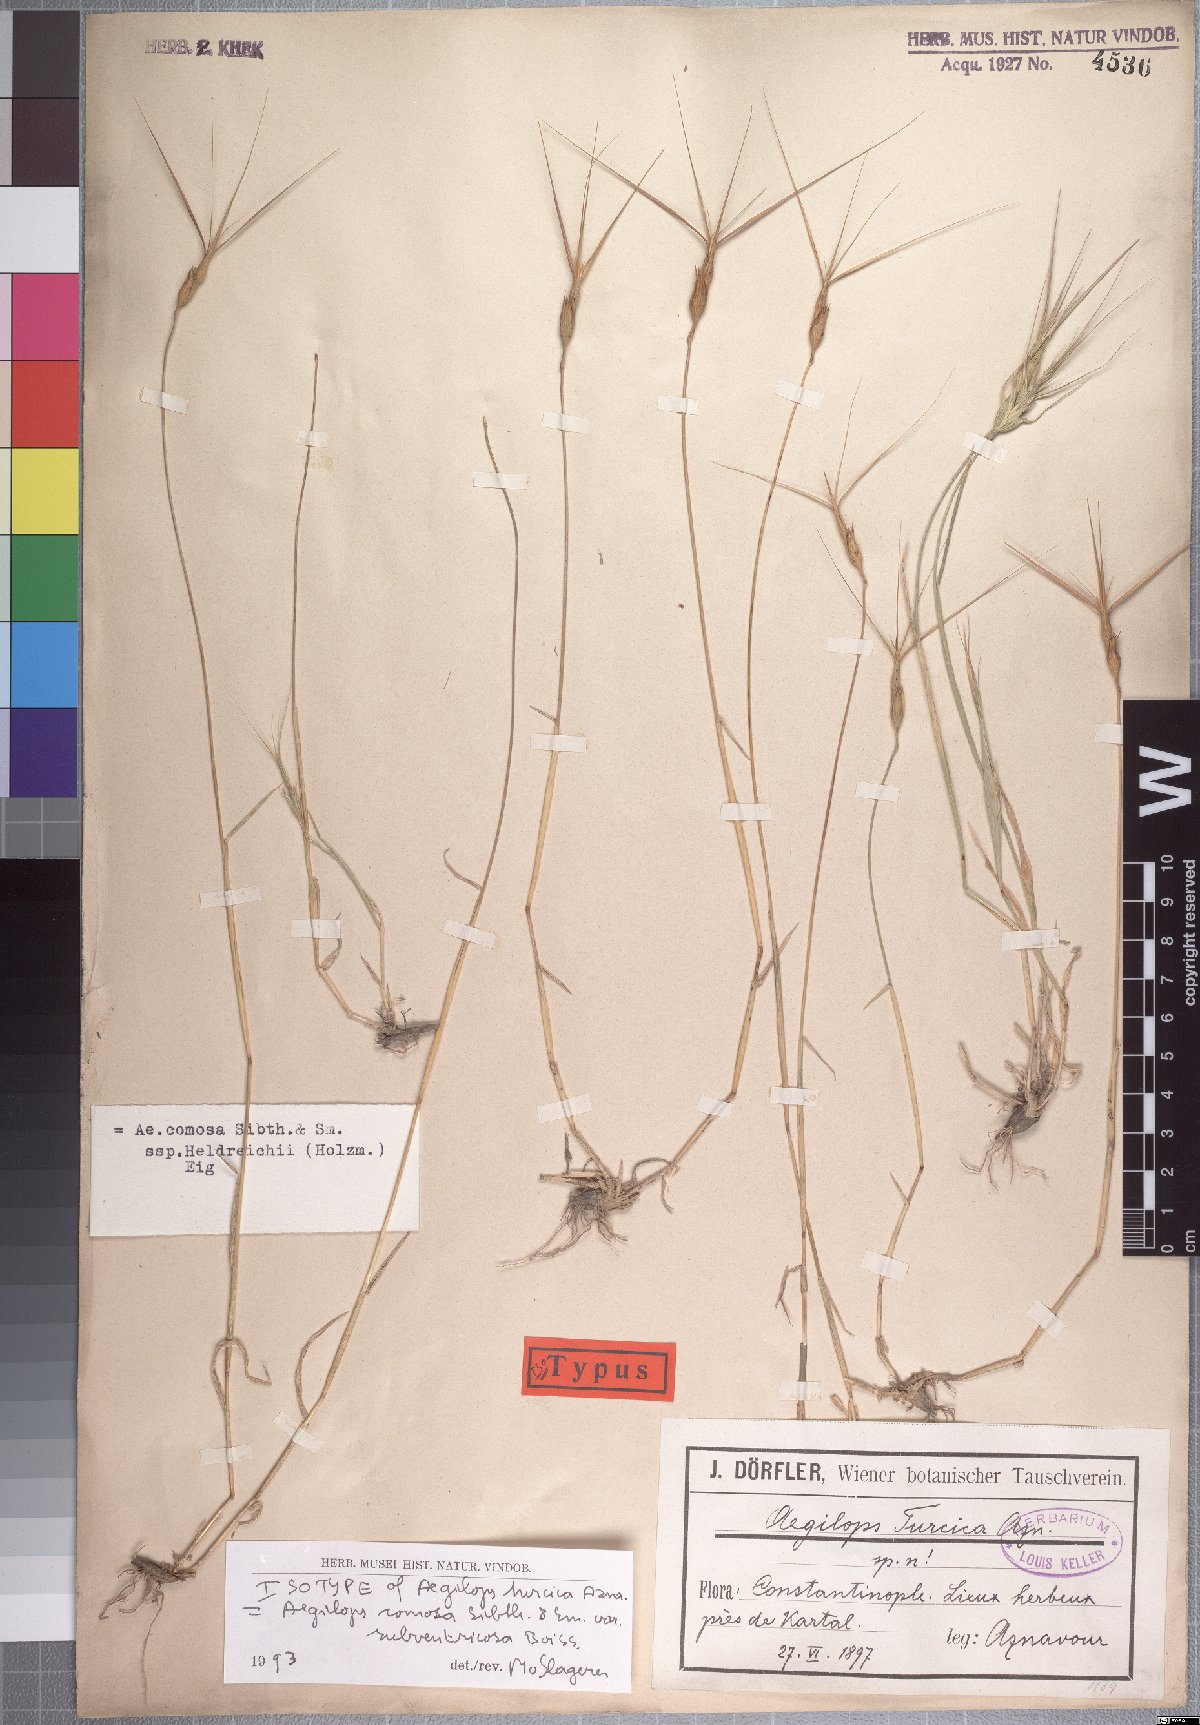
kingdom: Plantae
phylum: Tracheophyta
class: Liliopsida
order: Poales
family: Poaceae
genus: Aegilops
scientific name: Aegilops comosa
